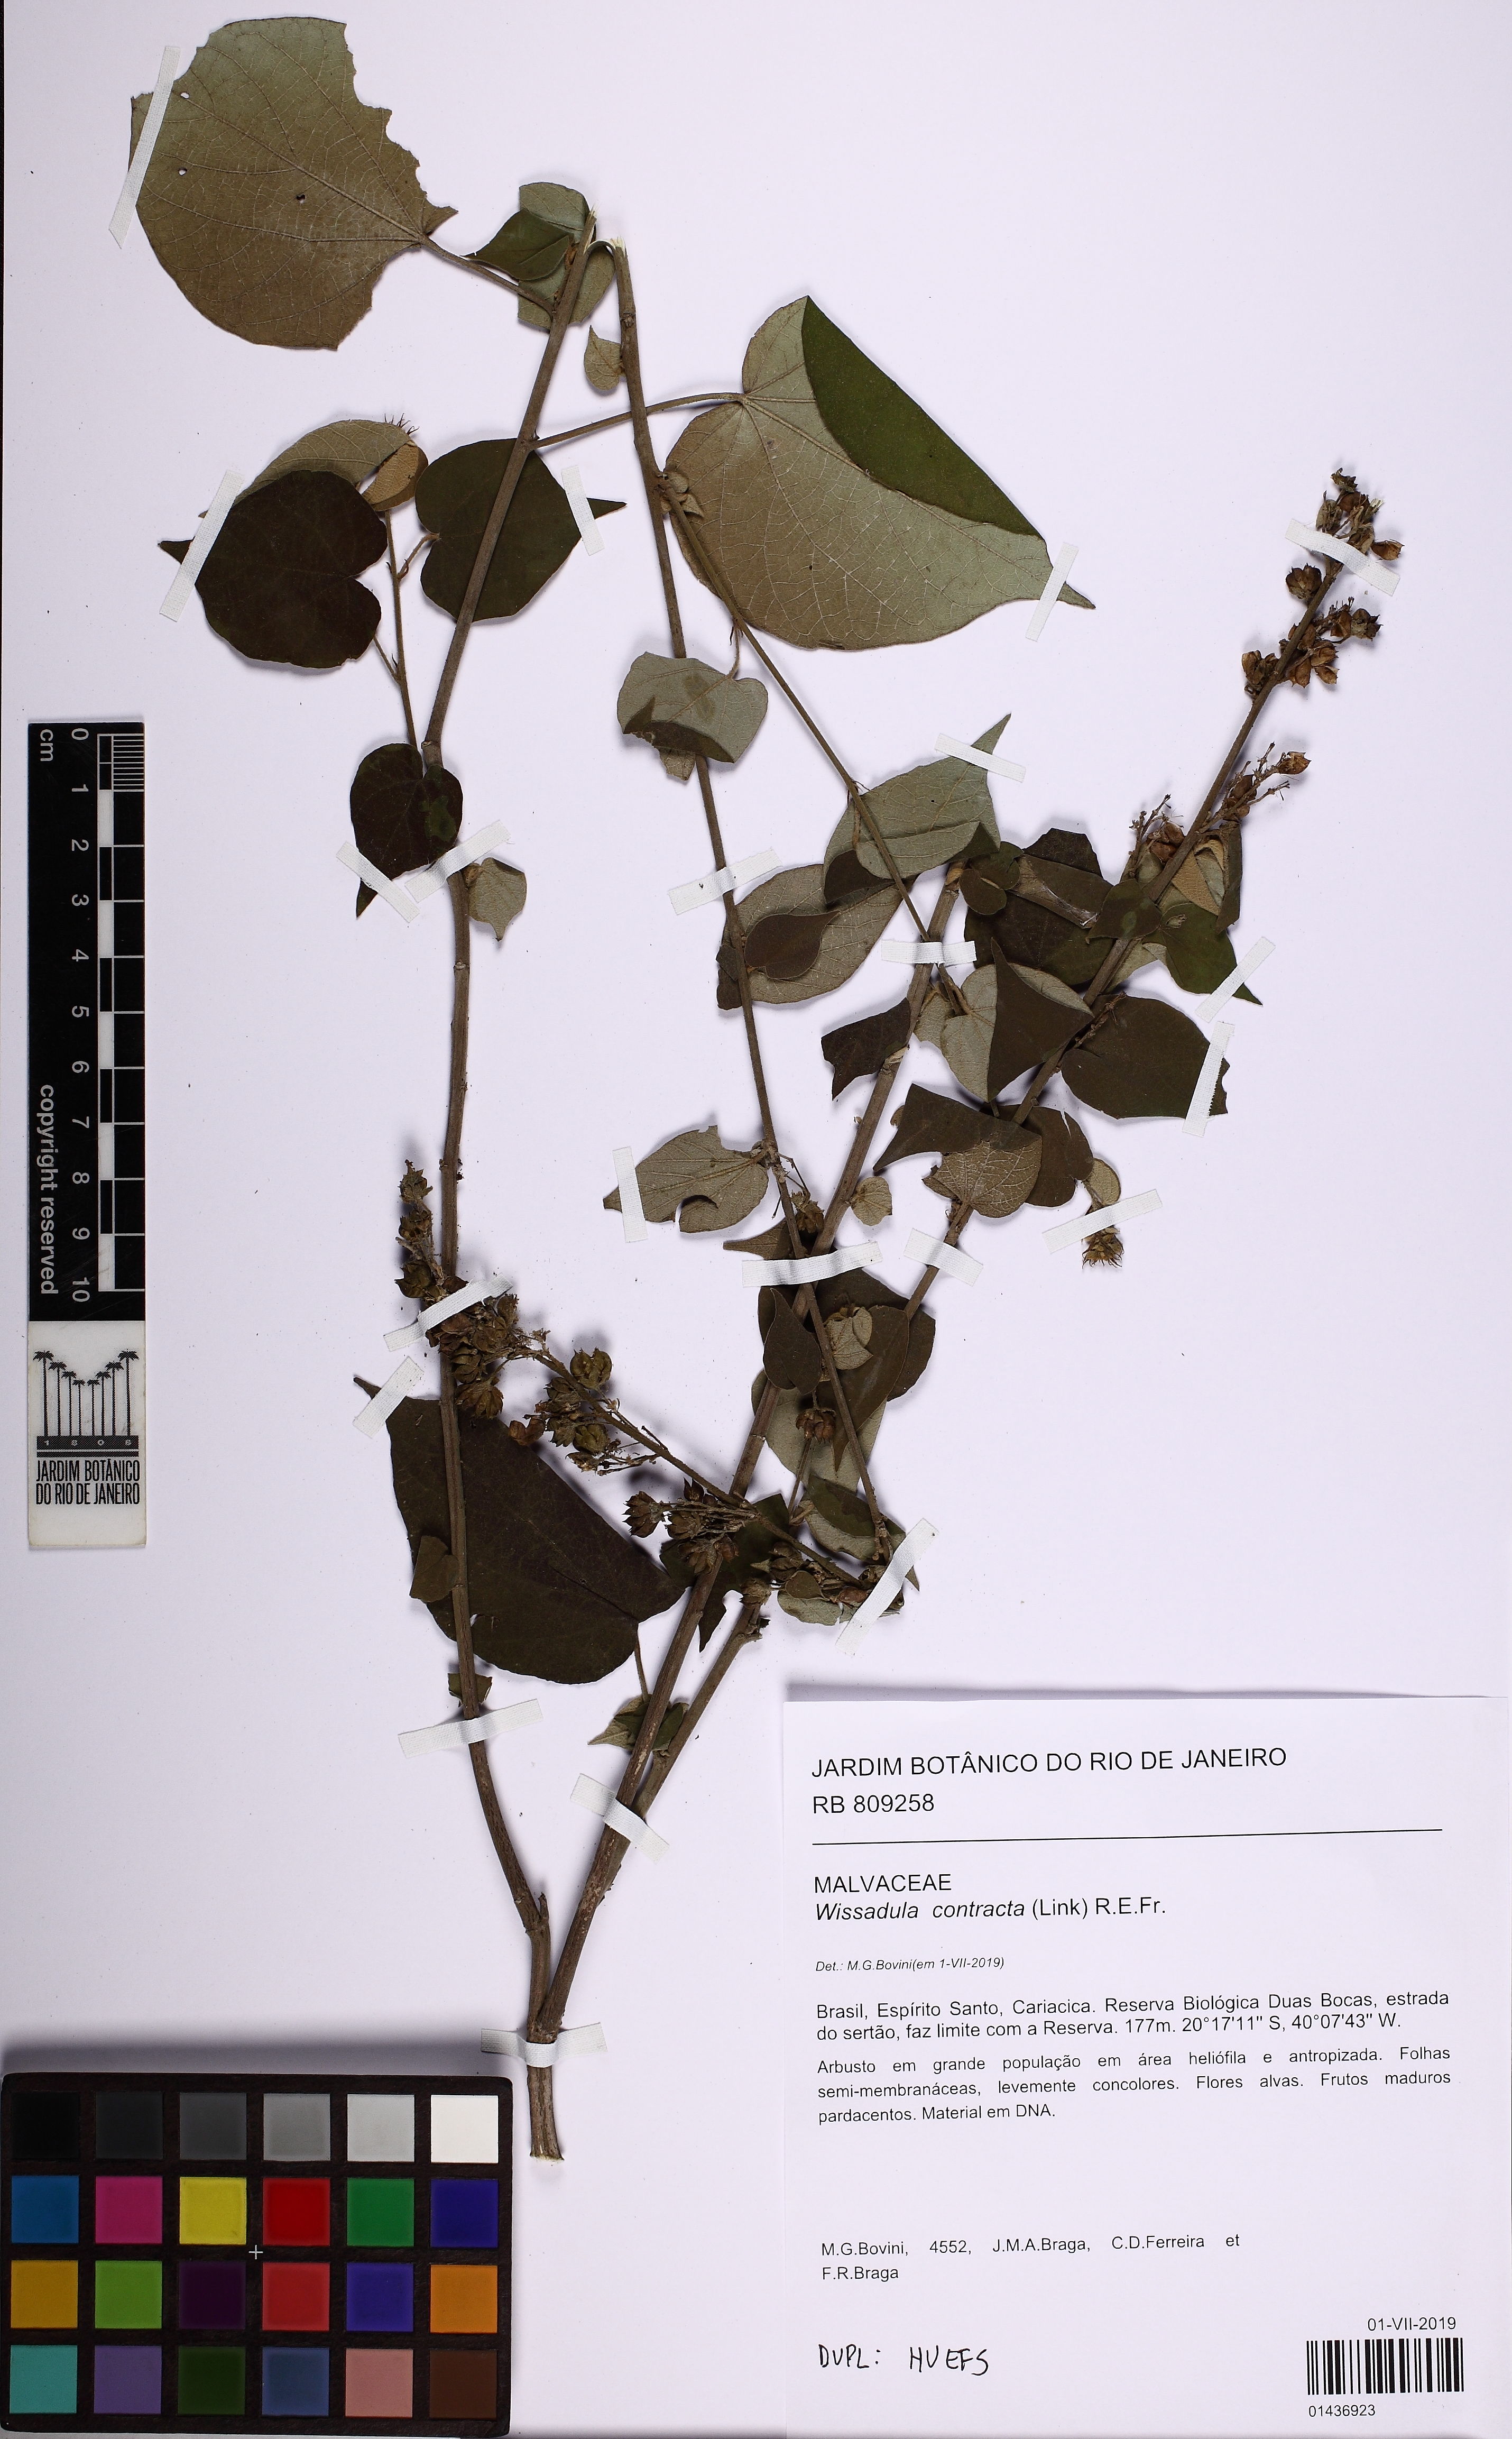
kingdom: Plantae
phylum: Tracheophyta
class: Magnoliopsida
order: Malvales
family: Malvaceae
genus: Wissadula
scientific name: Wissadula contracta
